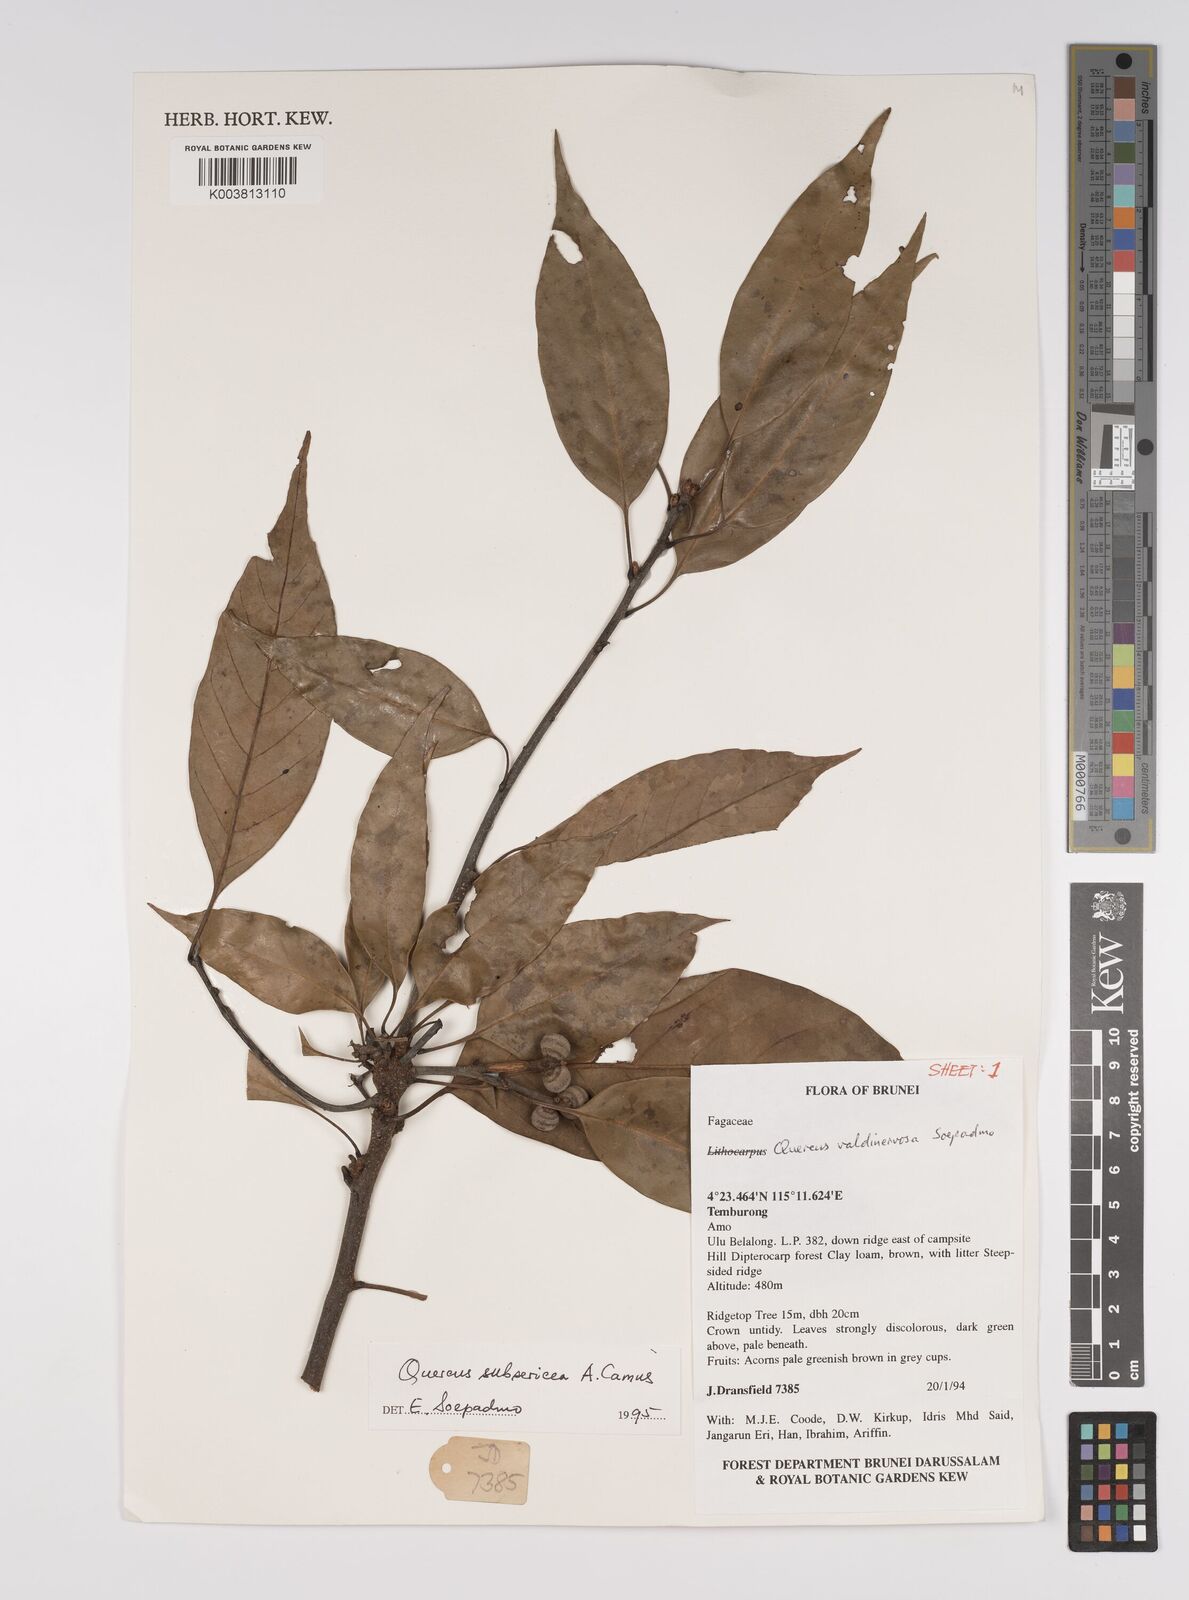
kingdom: Plantae
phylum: Tracheophyta
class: Magnoliopsida
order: Fagales
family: Fagaceae
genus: Quercus
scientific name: Quercus subsericea
